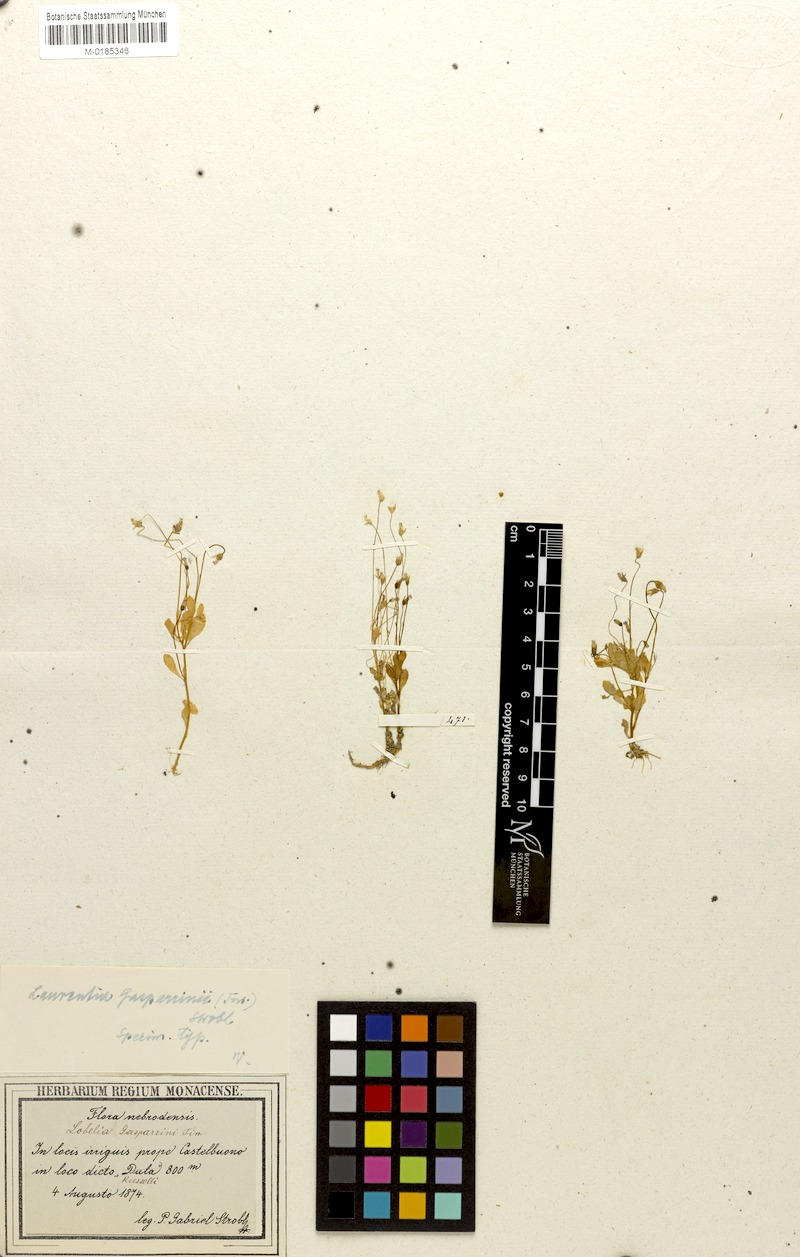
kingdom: Plantae
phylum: Tracheophyta
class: Magnoliopsida
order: Asterales
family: Campanulaceae
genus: Solenopsis
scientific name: Solenopsis laurentia
